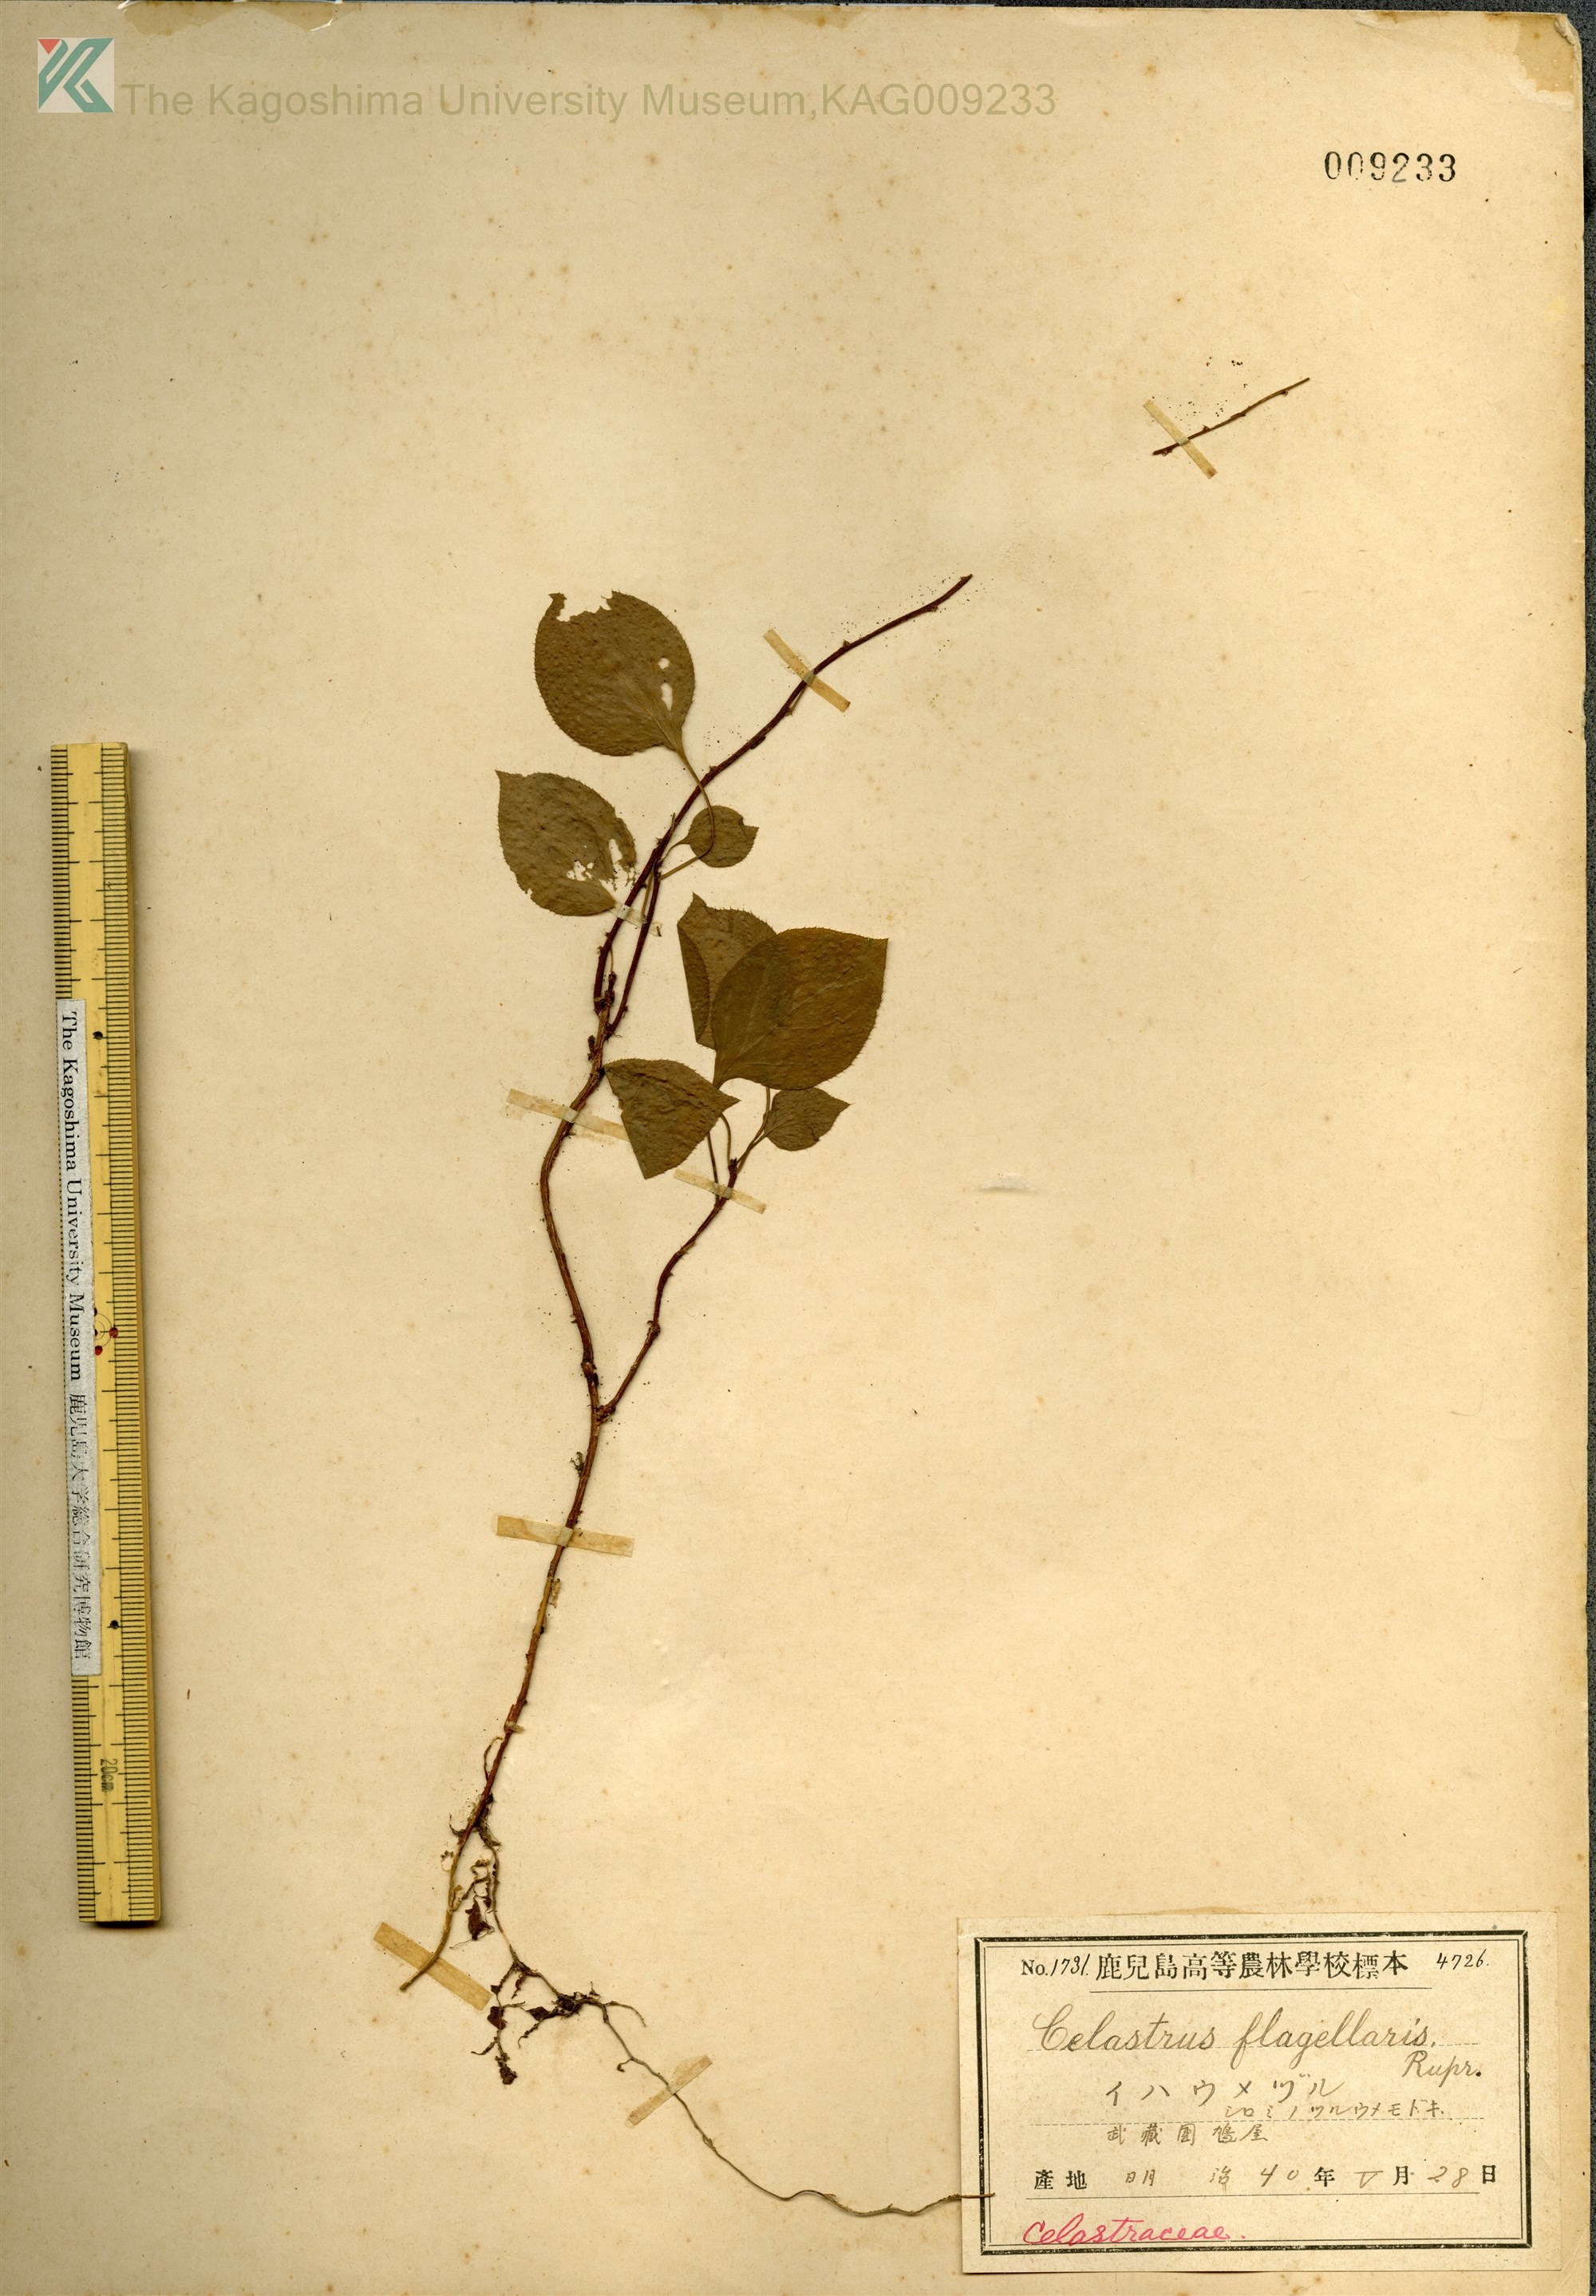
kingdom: Plantae
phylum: Tracheophyta
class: Magnoliopsida
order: Celastrales
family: Celastraceae
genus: Celastrus
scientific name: Celastrus flagellaris
